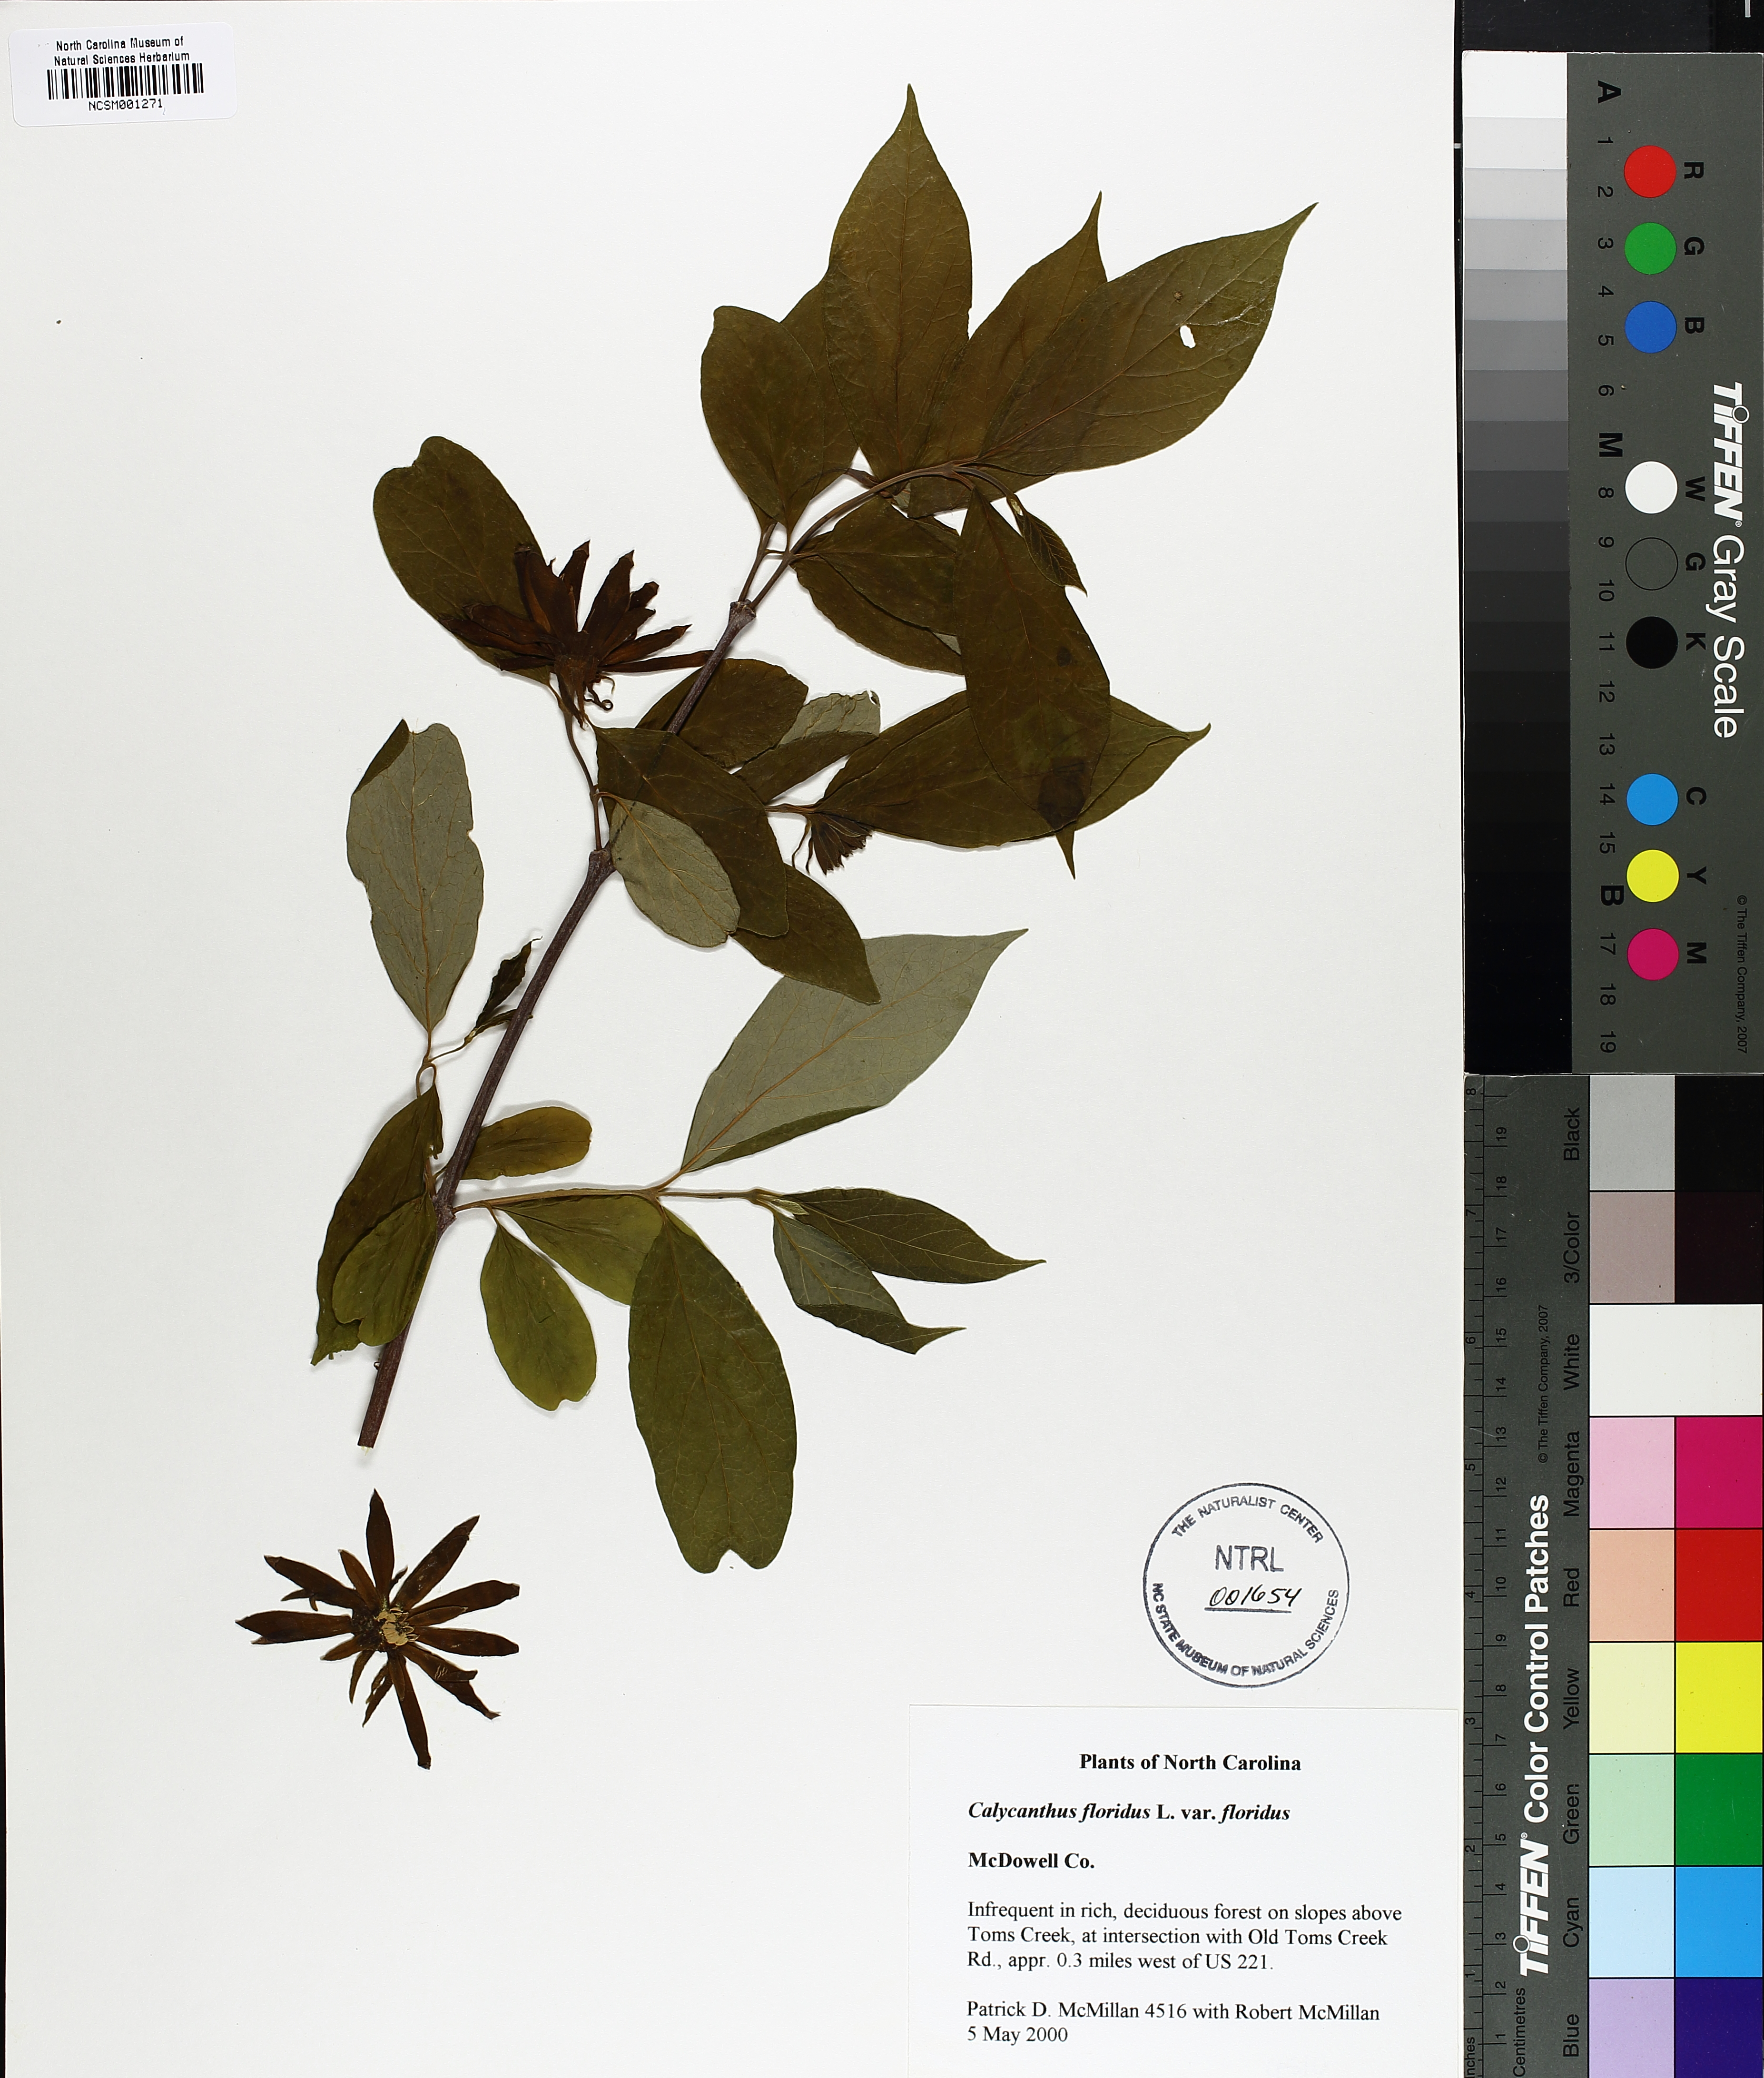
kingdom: Plantae
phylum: Tracheophyta
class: Magnoliopsida
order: Laurales
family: Calycanthaceae
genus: Calycanthus
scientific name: Calycanthus floridus
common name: Carolina-allspice
